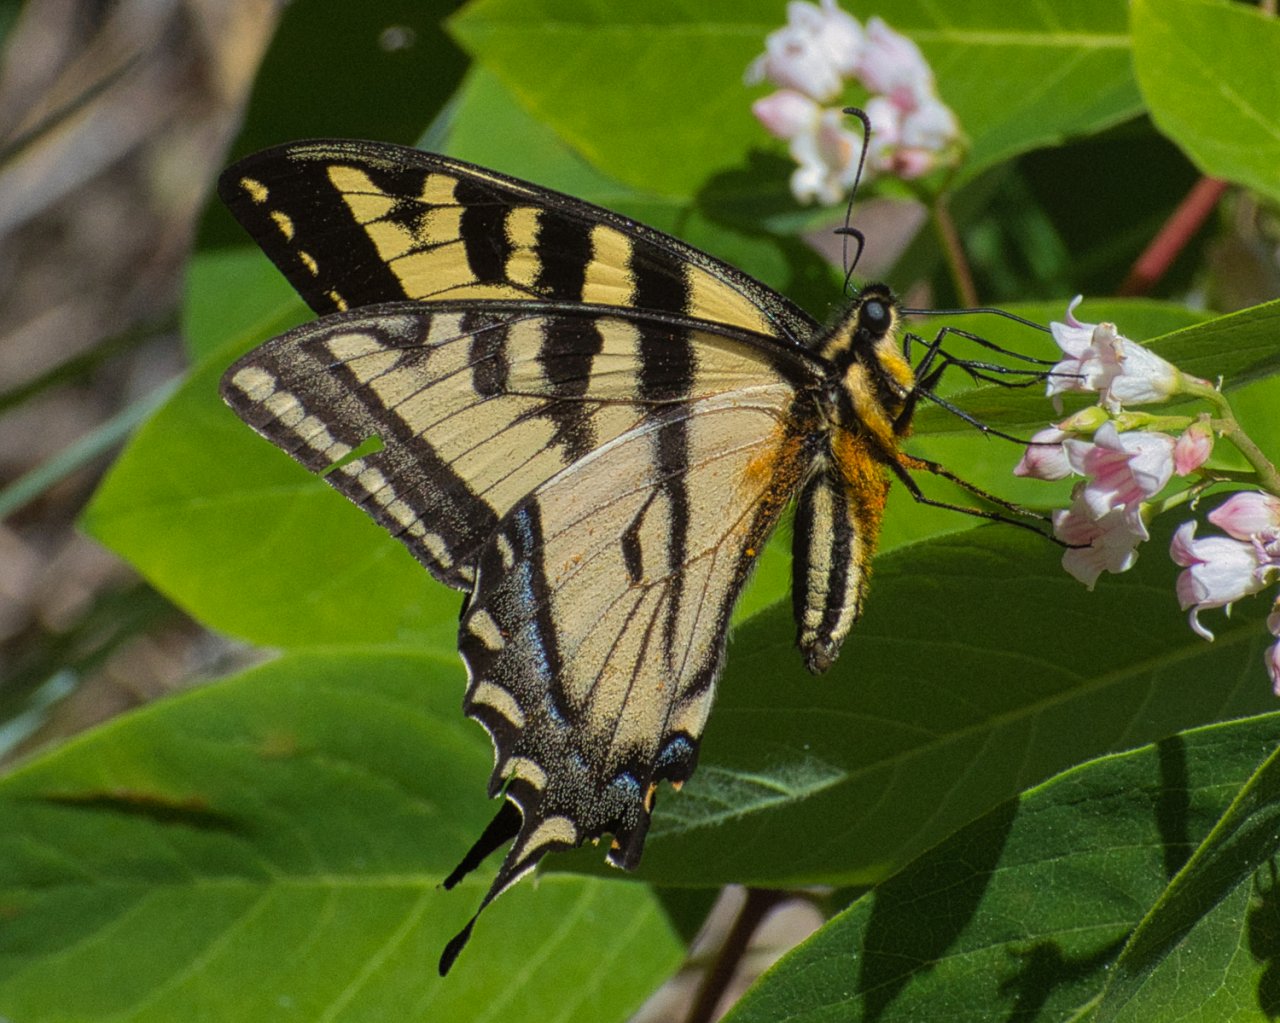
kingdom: Animalia
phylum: Arthropoda
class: Insecta
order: Lepidoptera
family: Papilionidae
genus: Pterourus
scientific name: Pterourus rutulus
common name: Western Tiger Swallowtail
